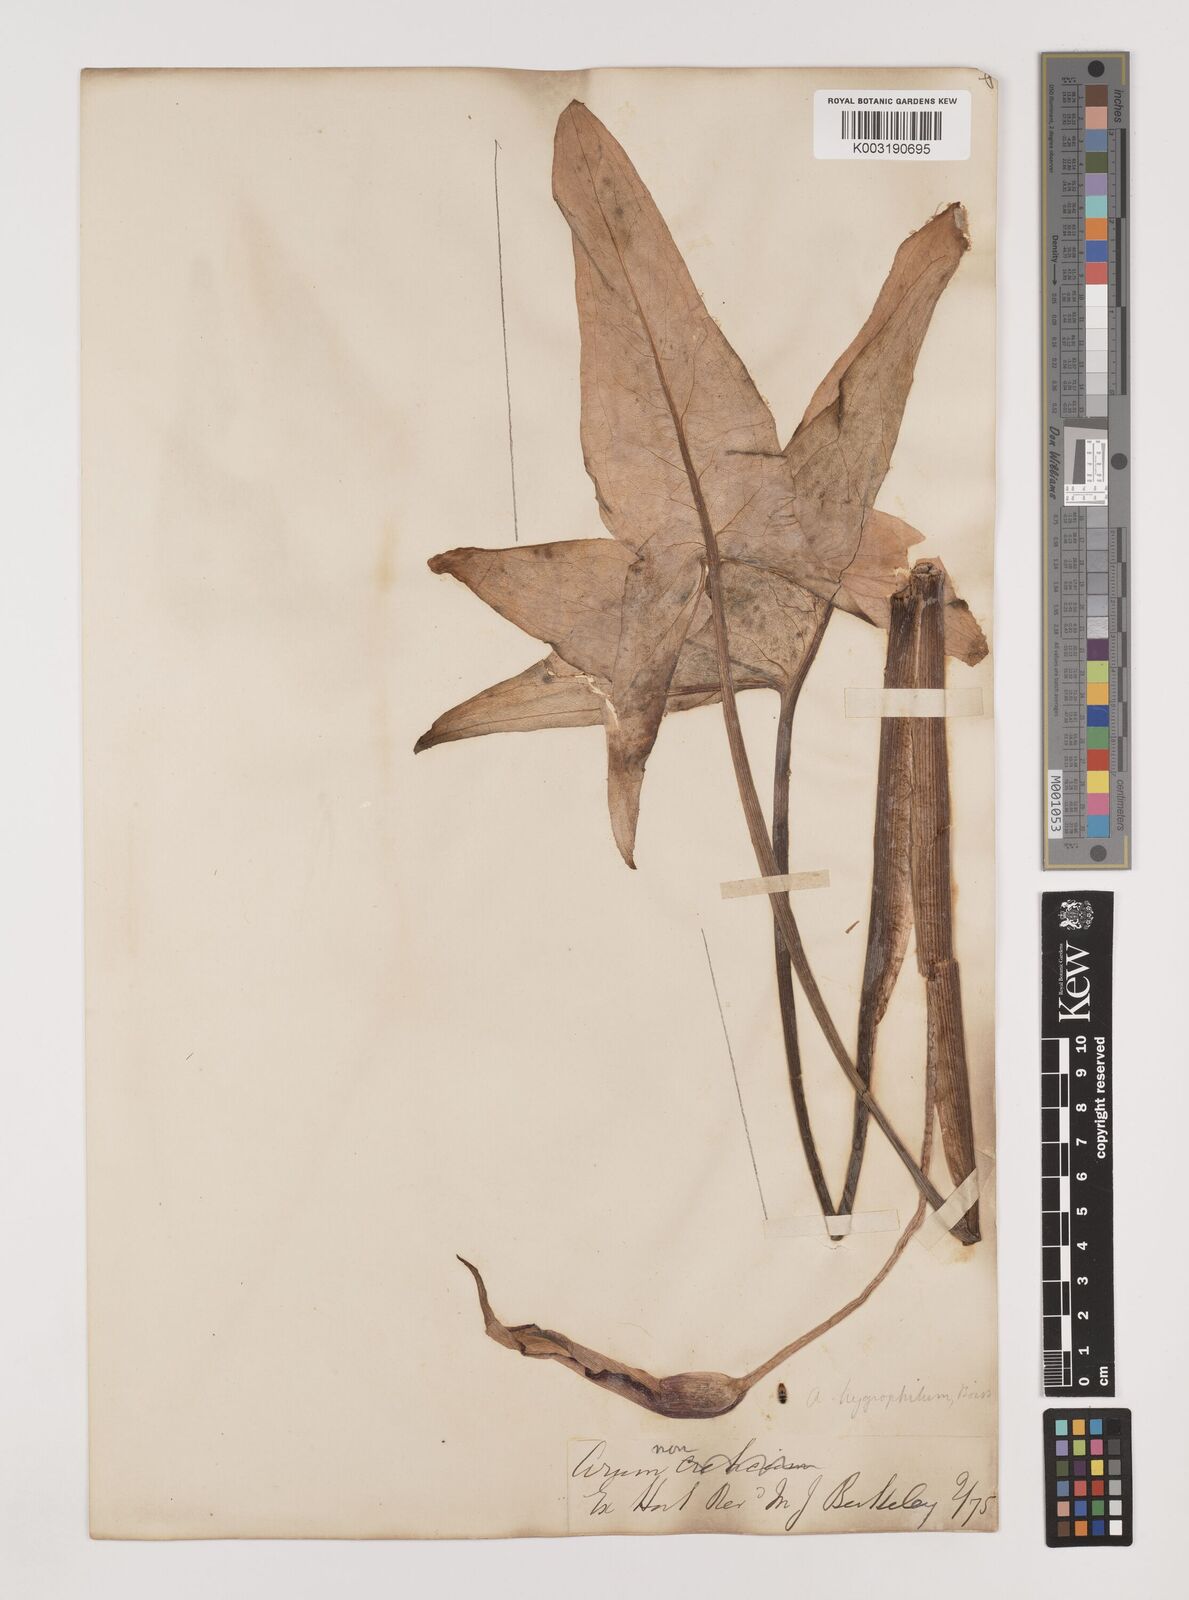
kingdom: Plantae
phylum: Tracheophyta
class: Liliopsida
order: Alismatales
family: Araceae
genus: Arum
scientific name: Arum hygrophilum
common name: Water arum
